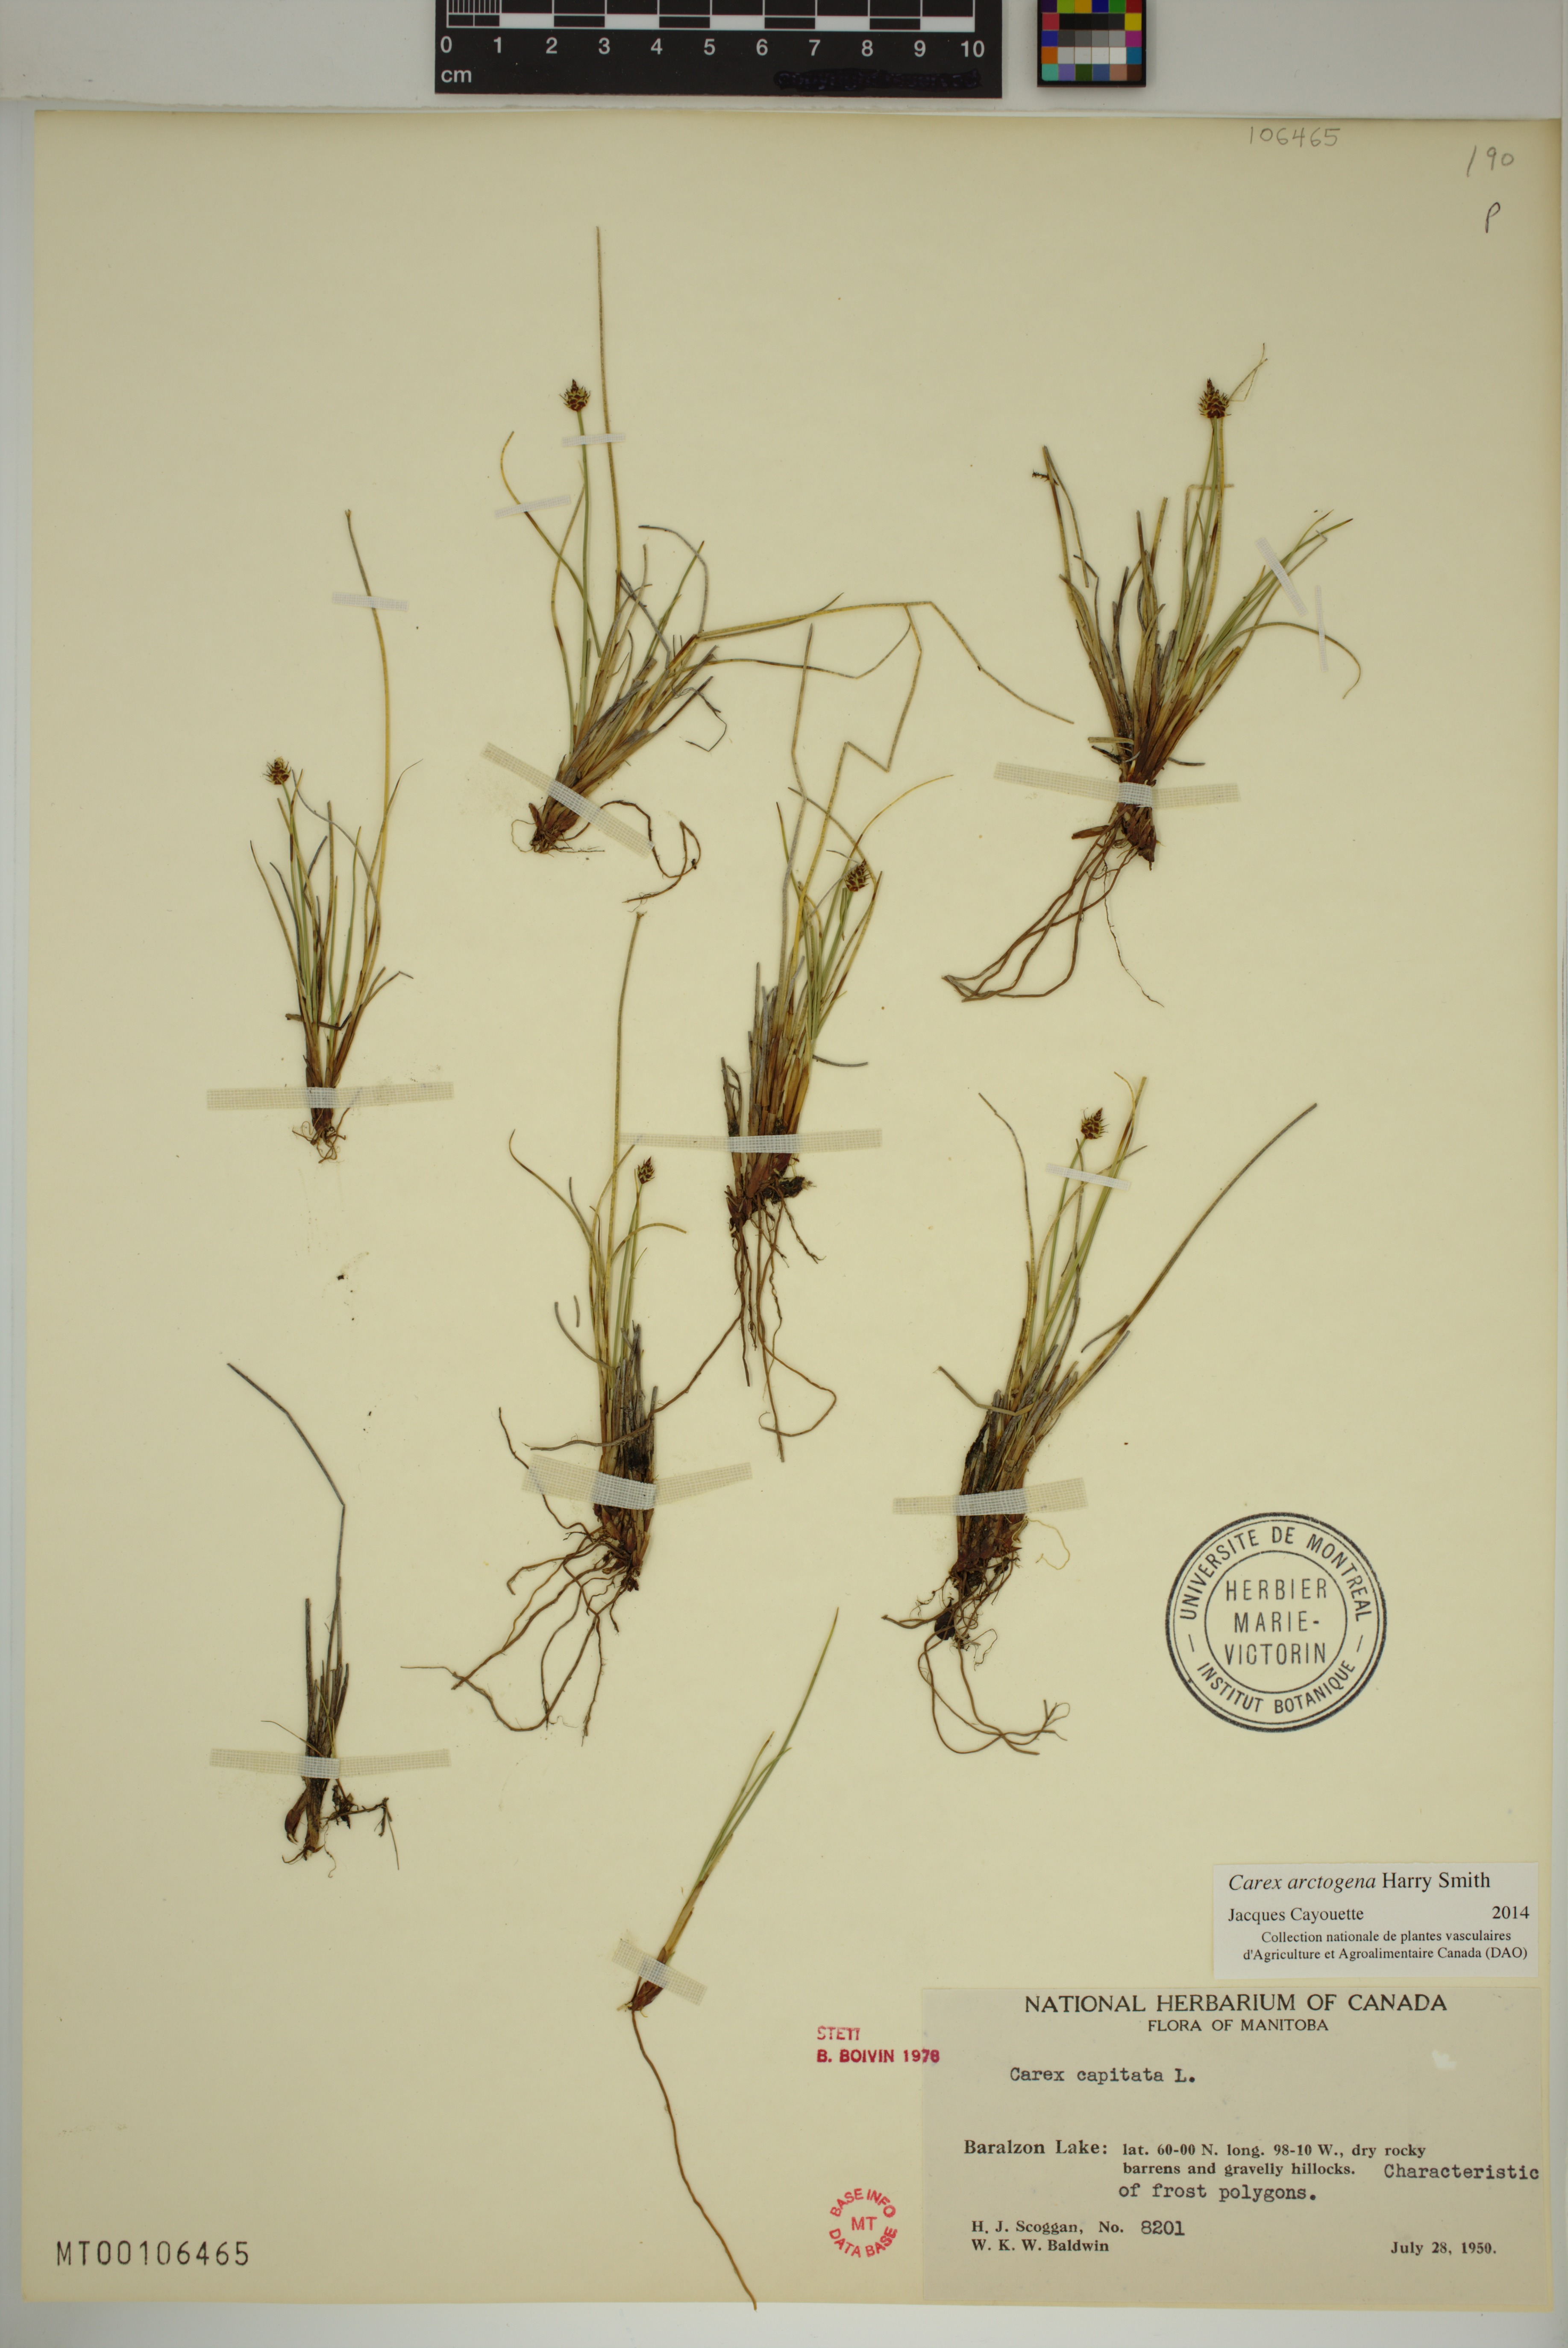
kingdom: Plantae
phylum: Tracheophyta
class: Liliopsida
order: Poales
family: Cyperaceae
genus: Carex
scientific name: Carex arctogena
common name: Black sedge
